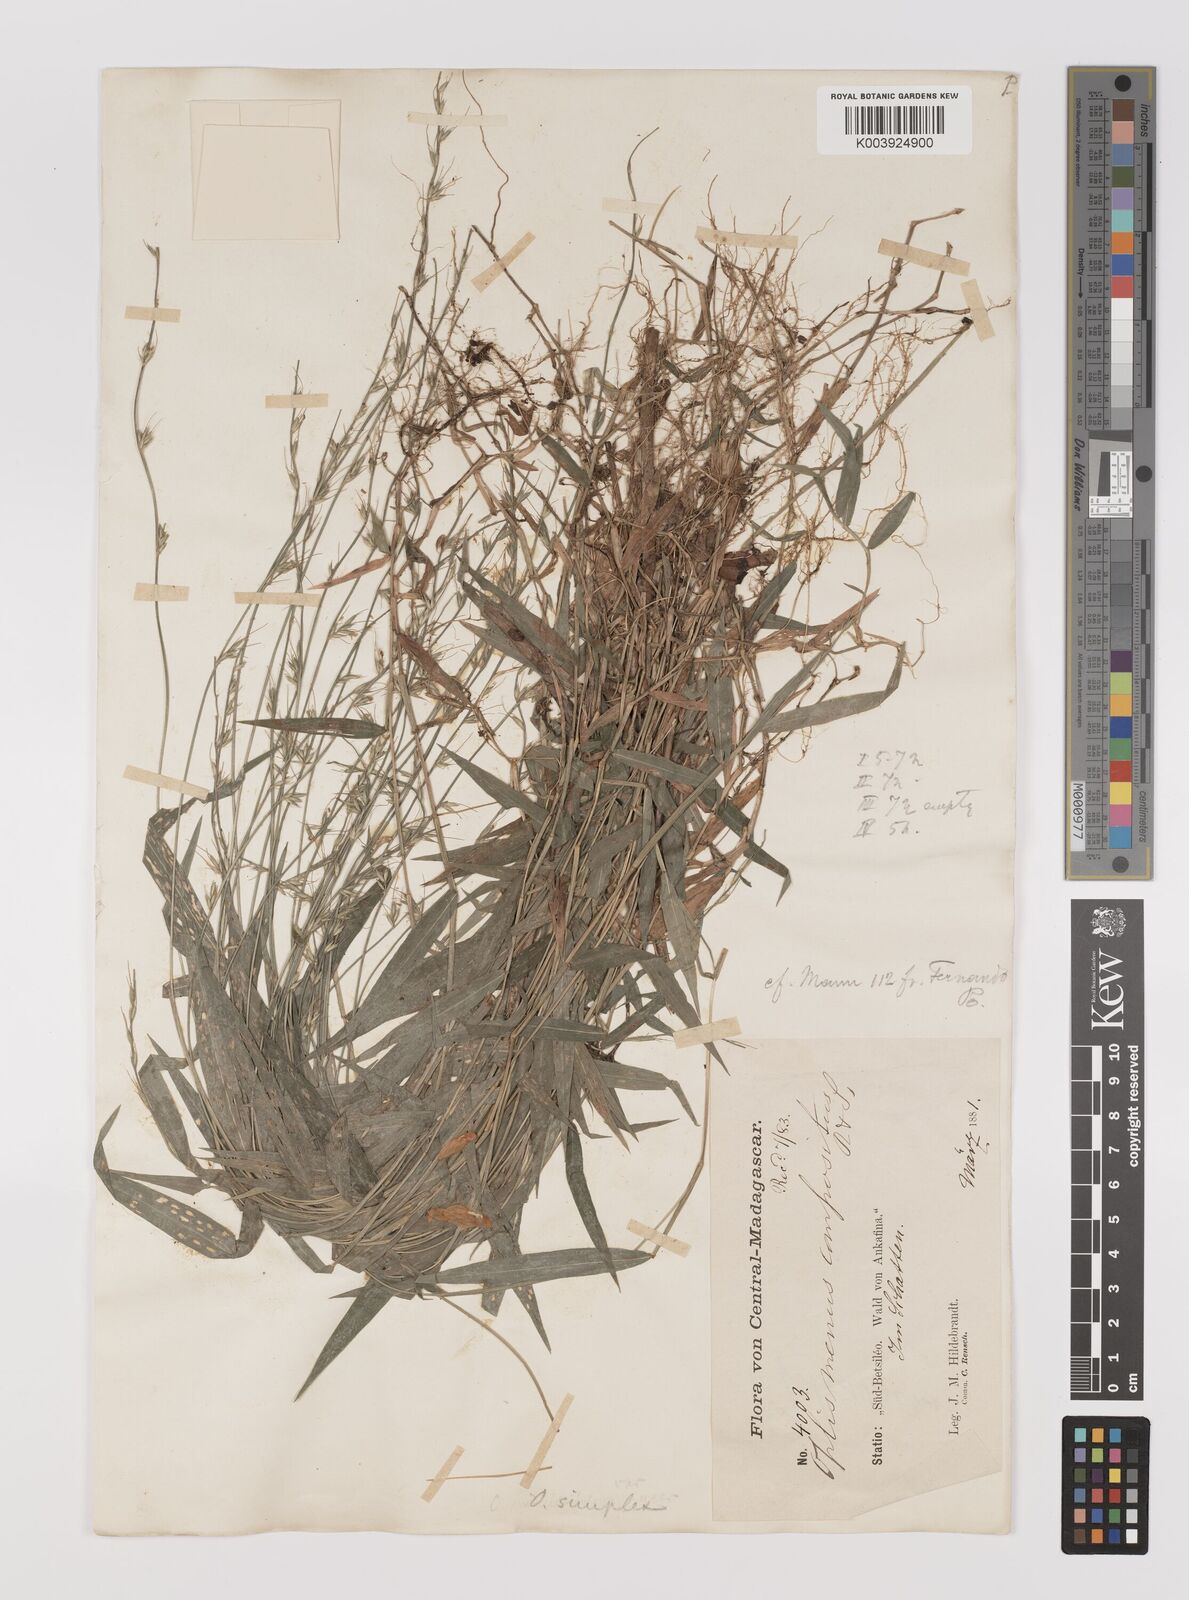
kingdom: Plantae
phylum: Tracheophyta
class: Liliopsida
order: Poales
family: Poaceae
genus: Oplismenus
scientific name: Oplismenus hirtellus
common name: Basketgrass
